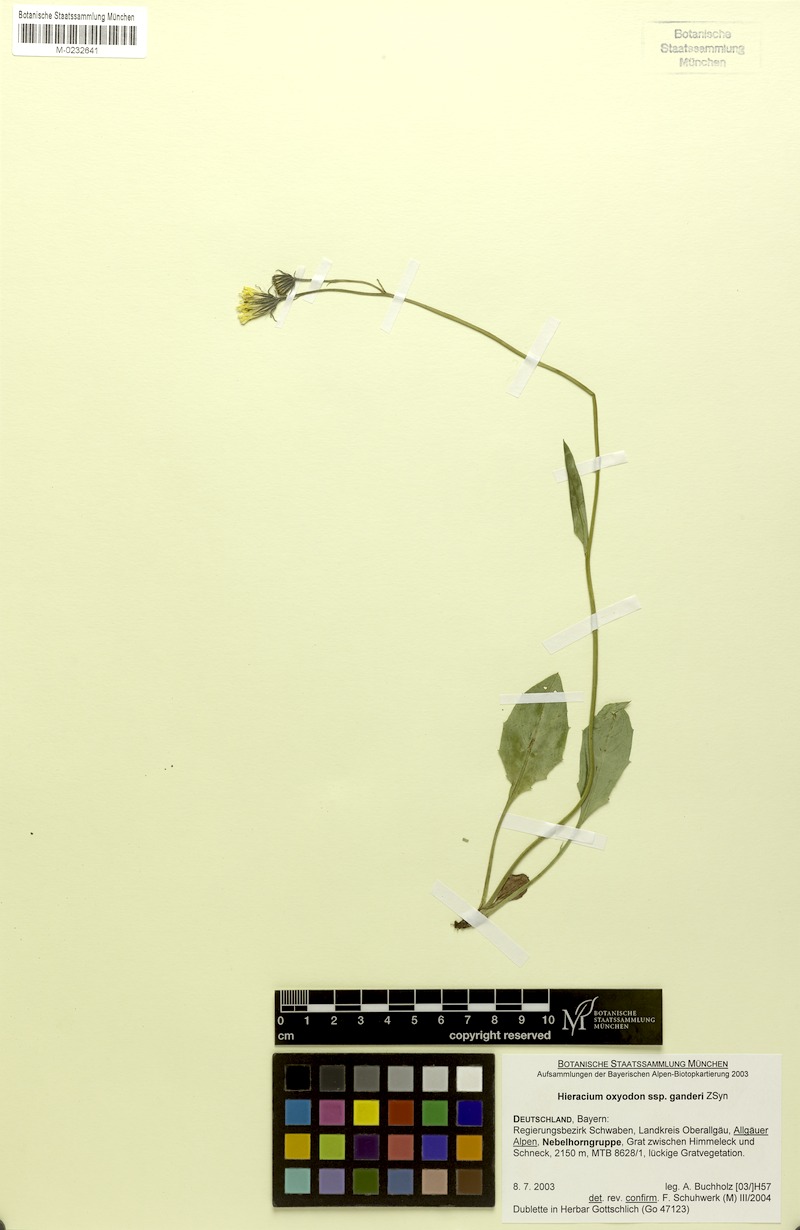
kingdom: Plantae
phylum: Tracheophyta
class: Magnoliopsida
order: Asterales
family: Asteraceae
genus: Hieracium
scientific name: Hieracium oxyodon
